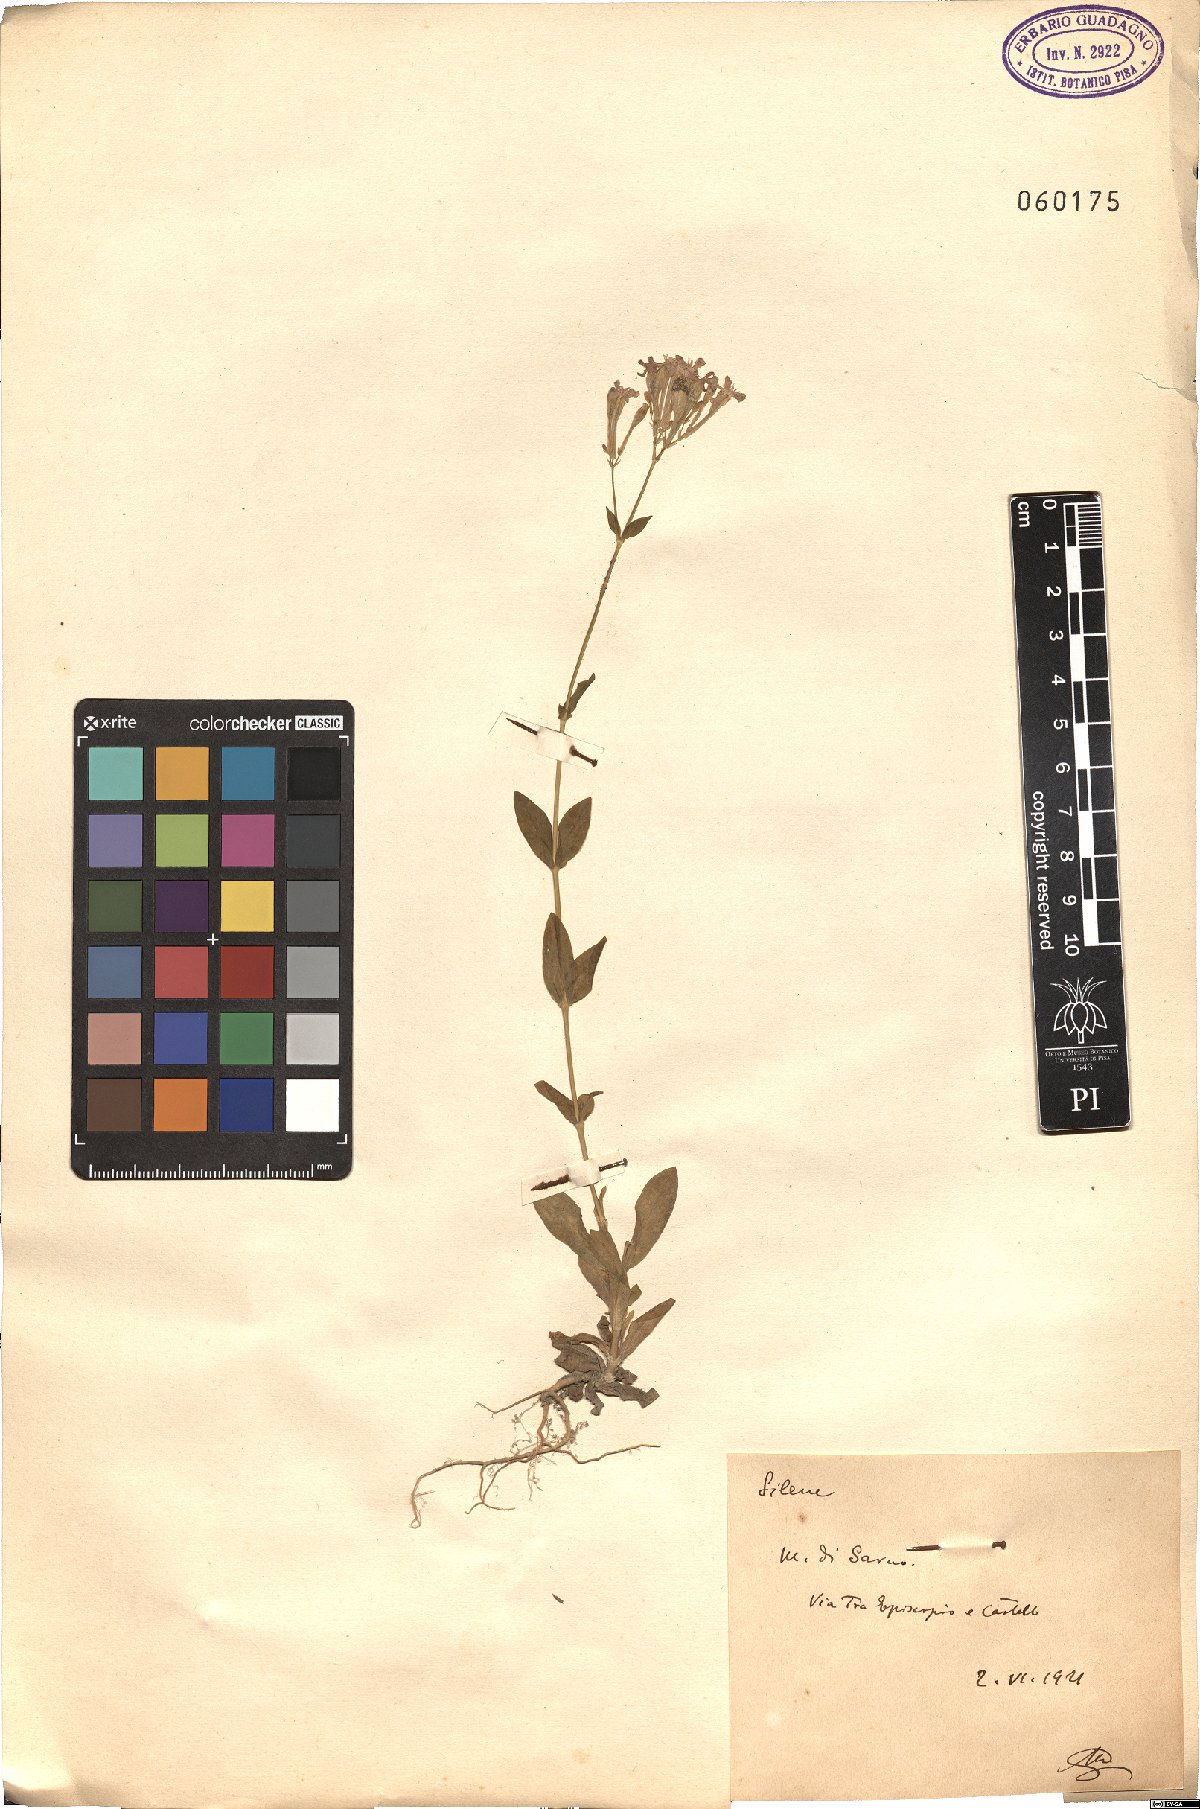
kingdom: Plantae
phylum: Tracheophyta
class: Magnoliopsida
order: Caryophyllales
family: Caryophyllaceae
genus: Silene
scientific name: Silene
